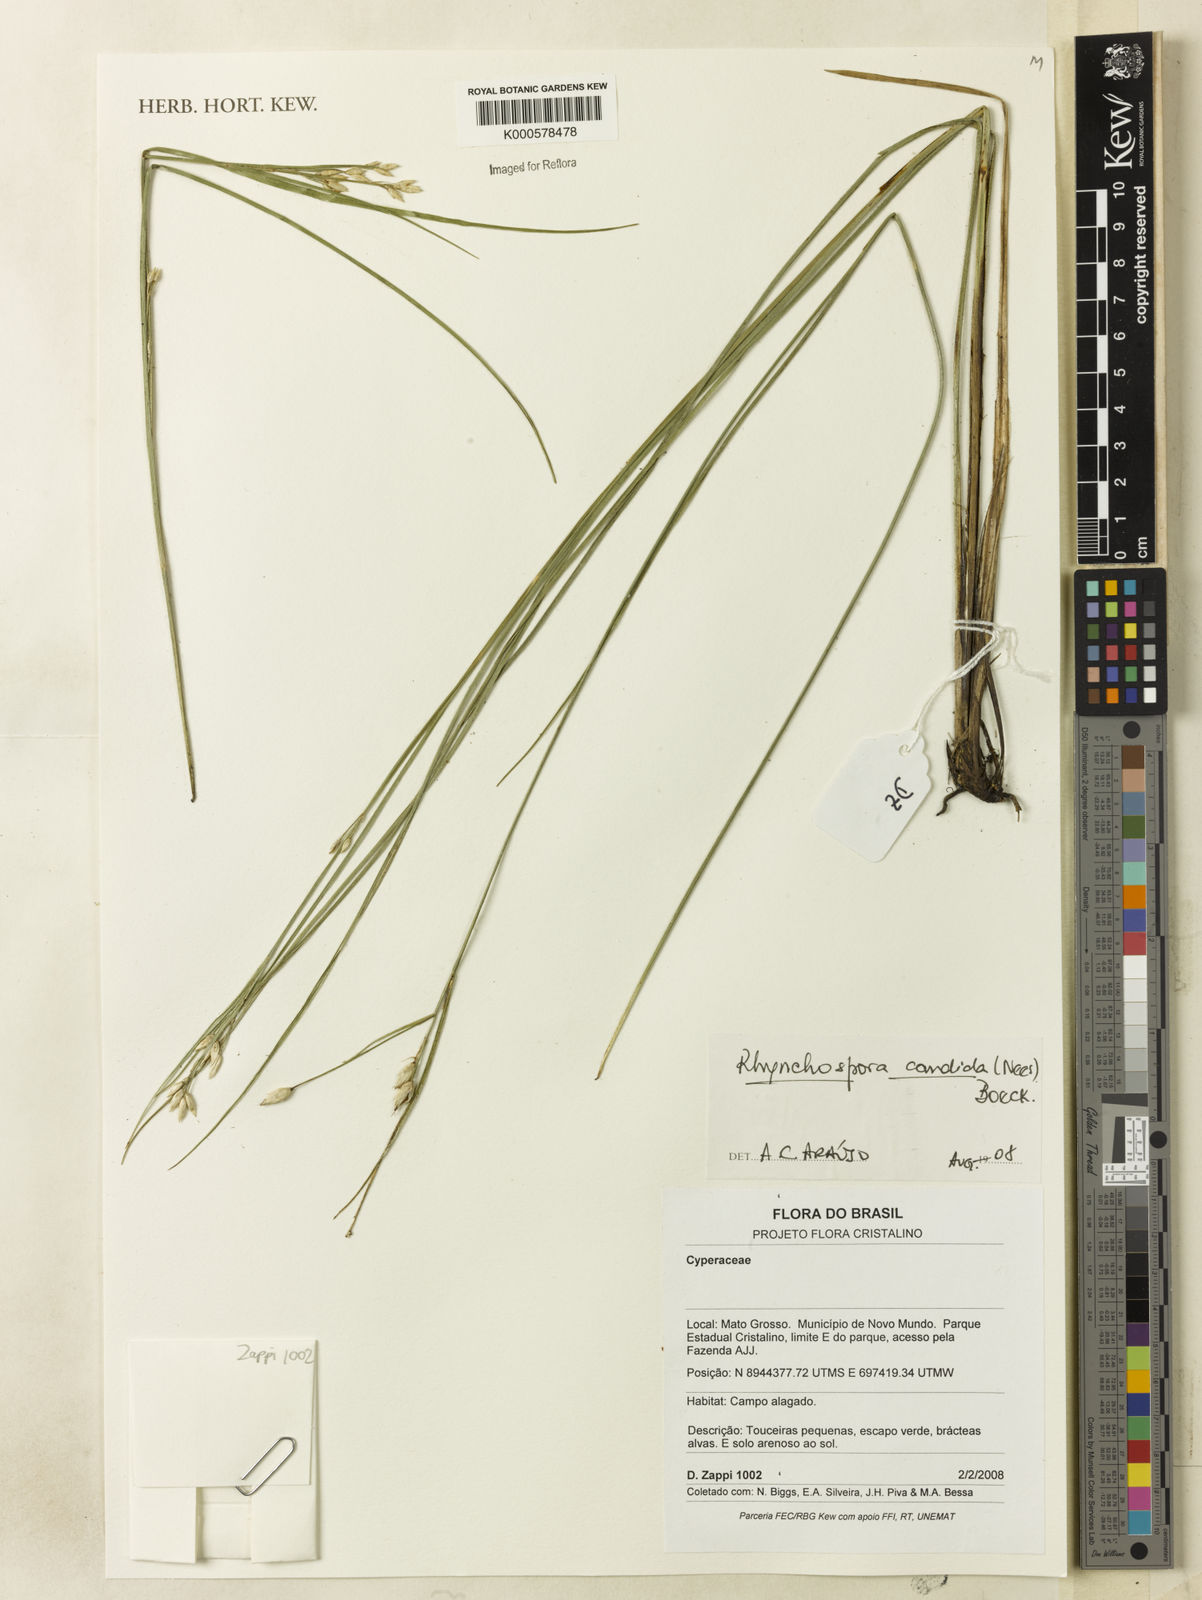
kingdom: Plantae
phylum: Tracheophyta
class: Liliopsida
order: Poales
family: Cyperaceae
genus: Rhynchospora
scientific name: Rhynchospora candida
